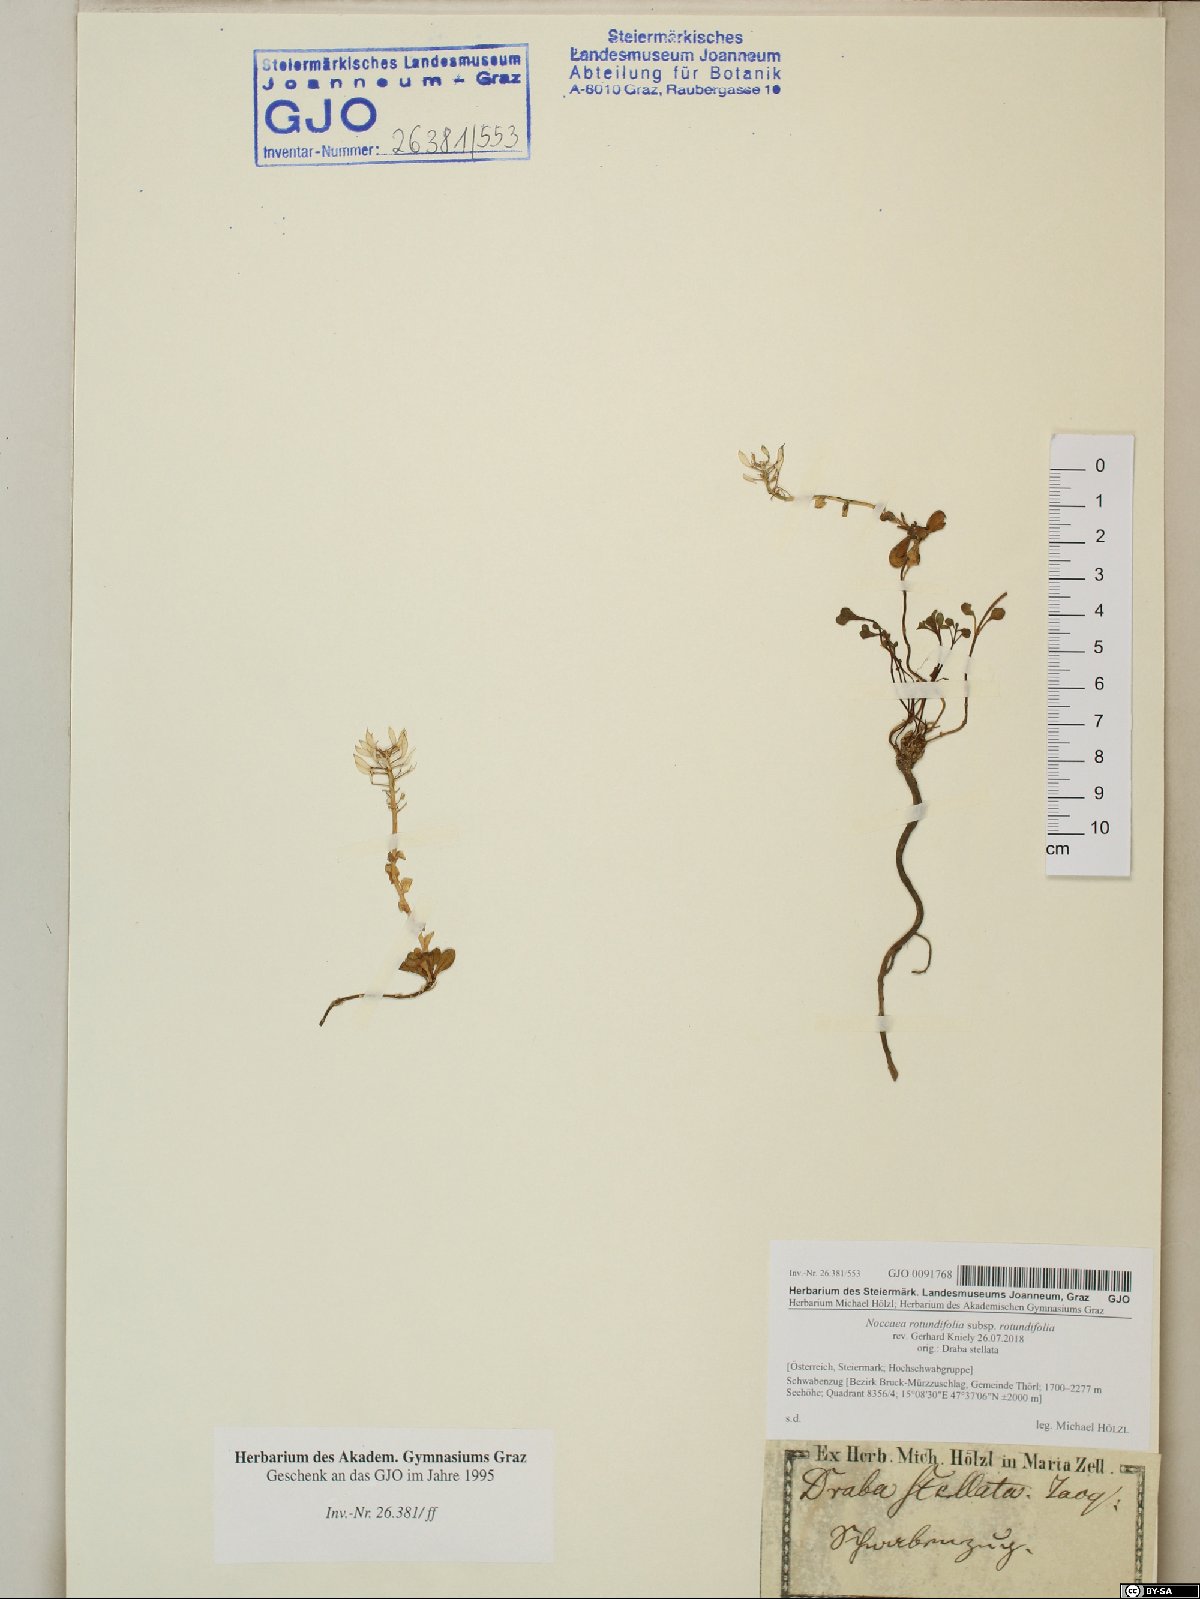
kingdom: Plantae
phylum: Tracheophyta
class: Magnoliopsida
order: Brassicales
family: Brassicaceae
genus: Noccaea
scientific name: Noccaea rotundifolia
